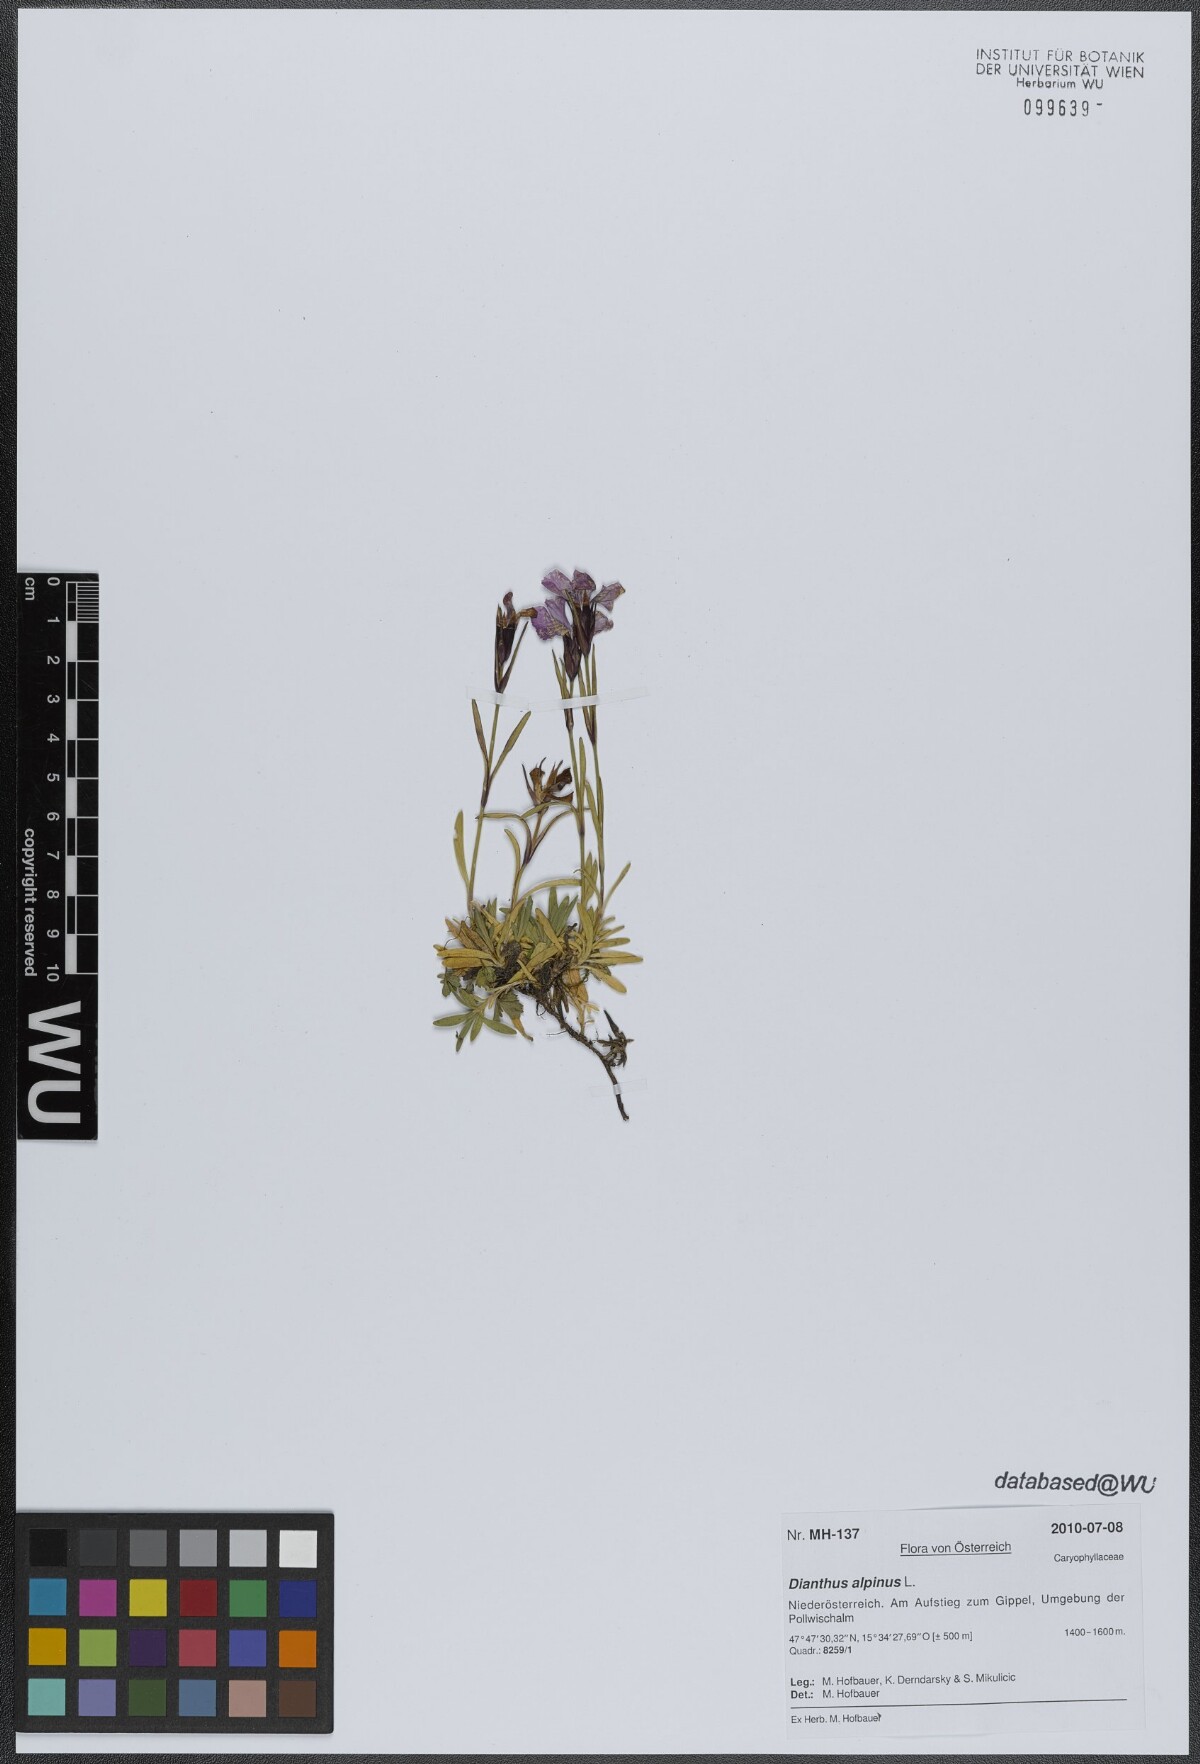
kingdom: Plantae
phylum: Tracheophyta
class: Magnoliopsida
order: Caryophyllales
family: Caryophyllaceae
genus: Dianthus
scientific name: Dianthus alpinus
